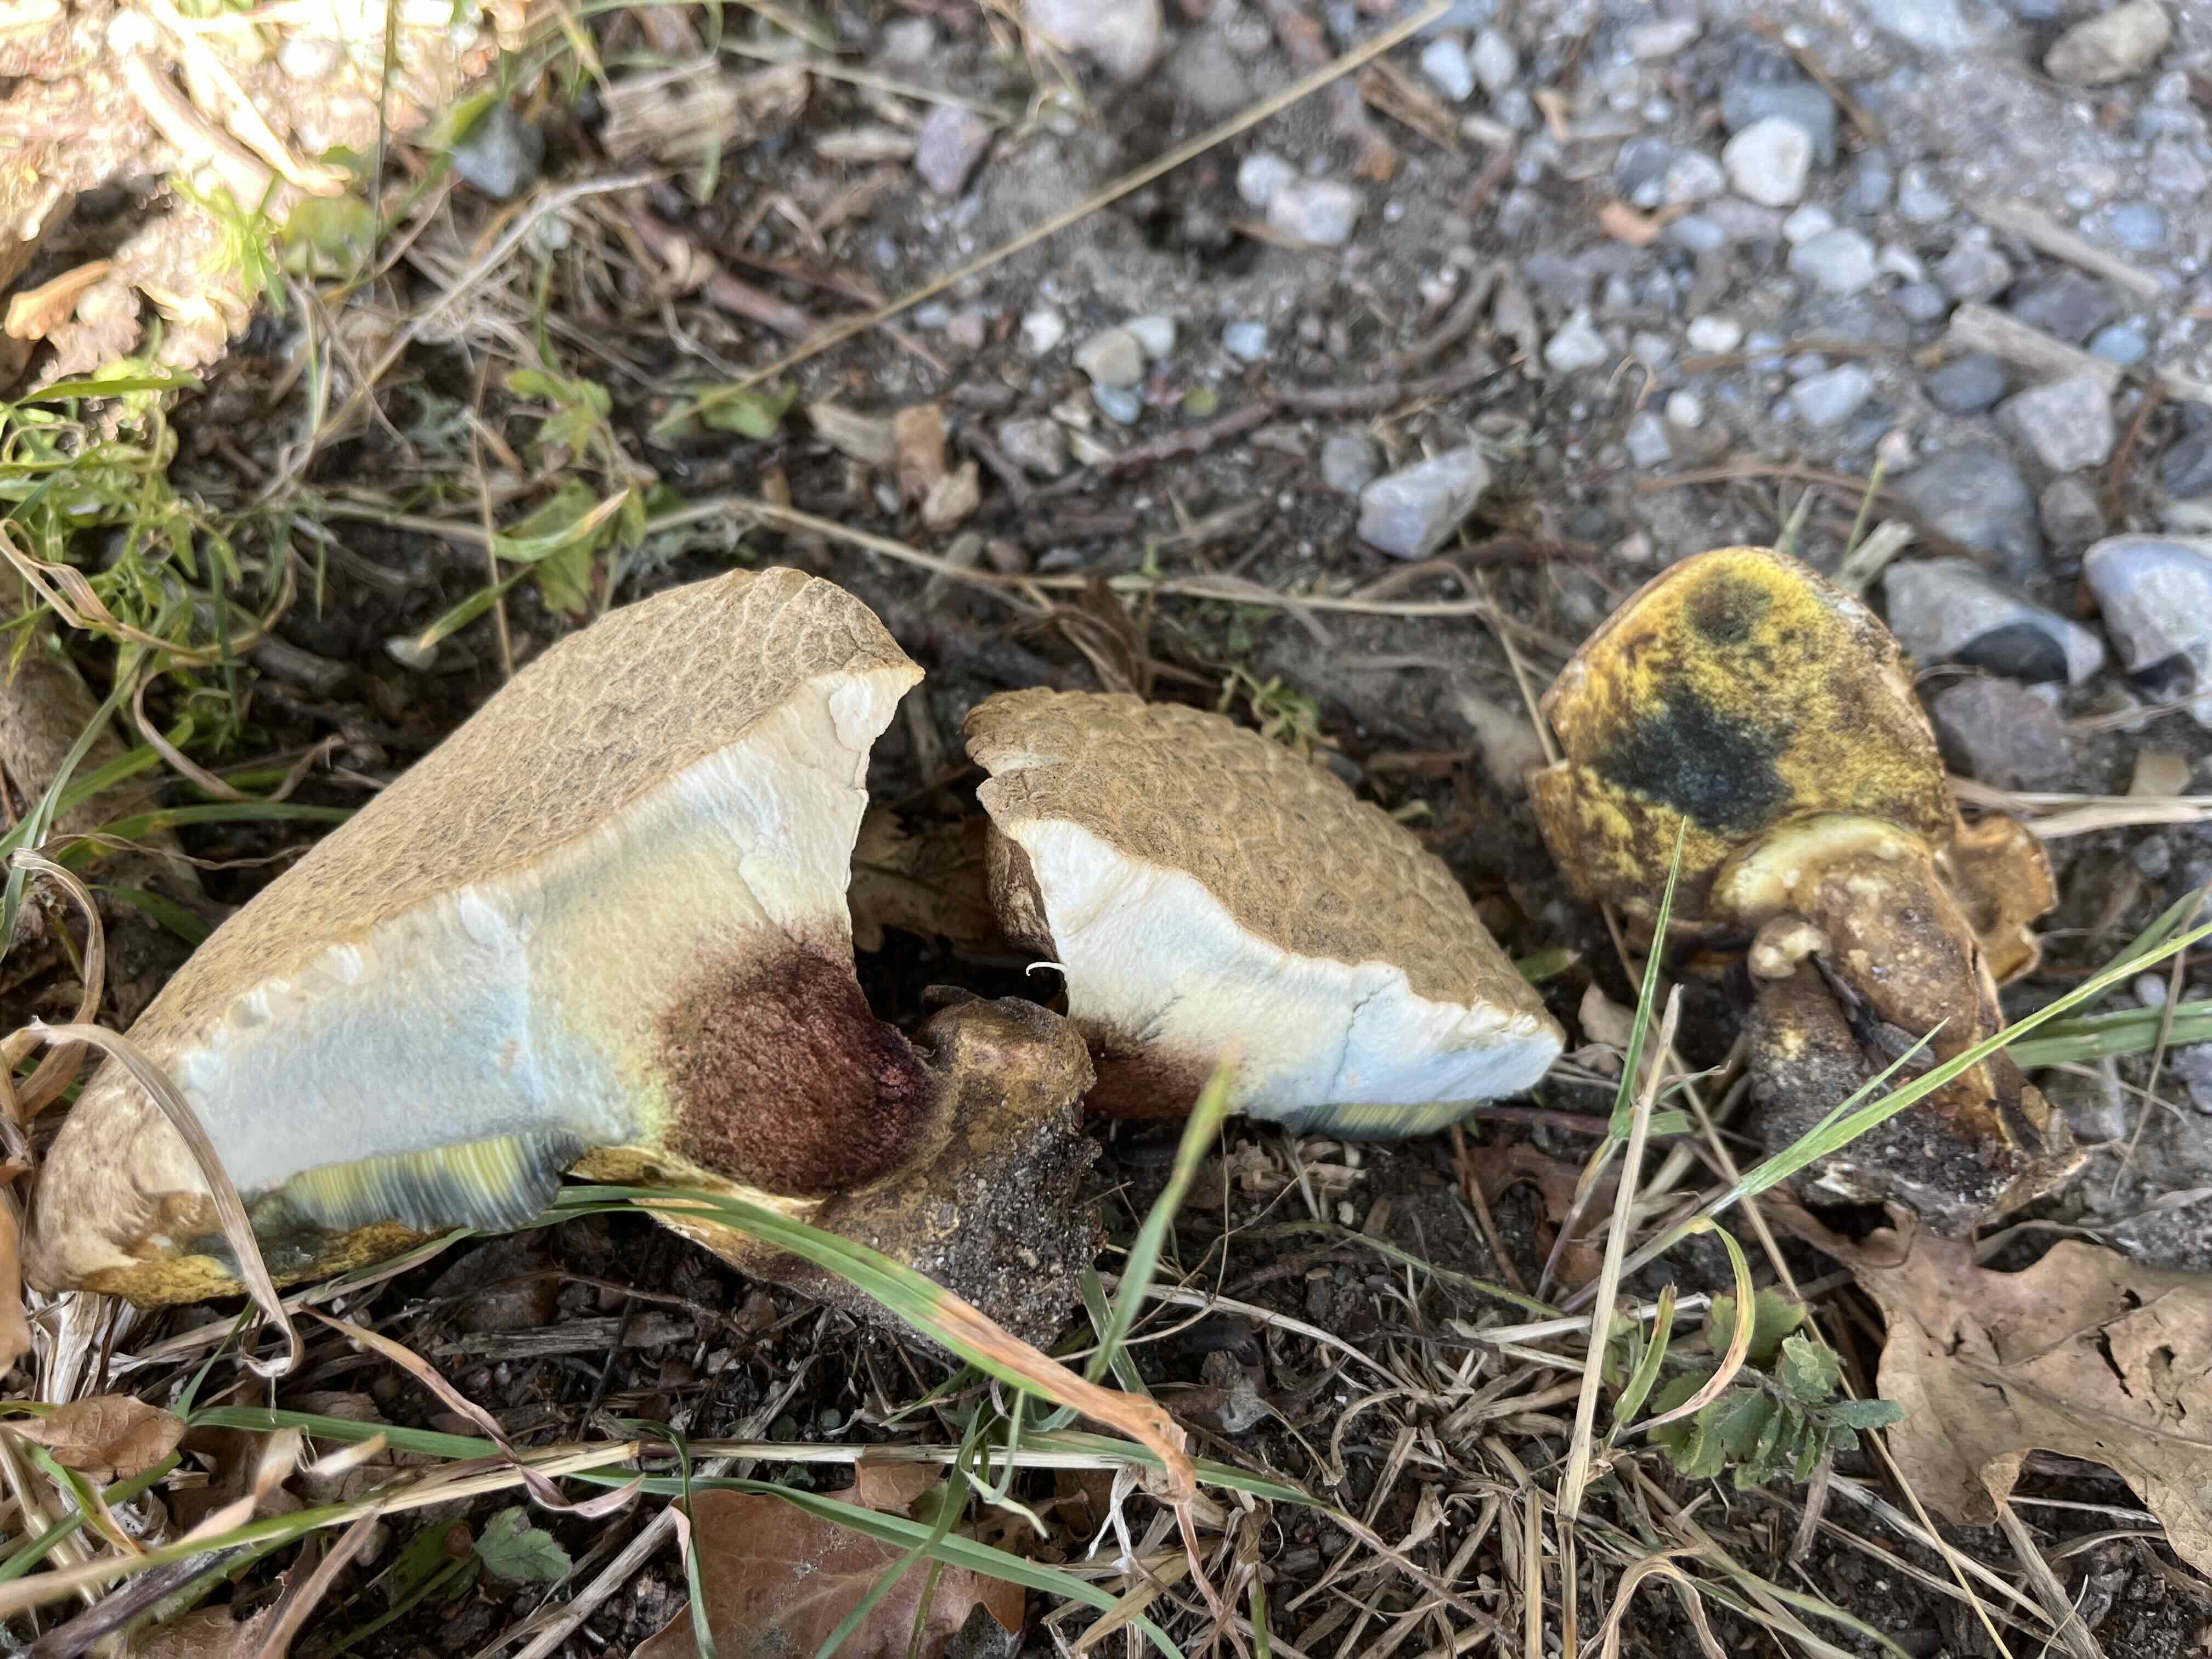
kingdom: Fungi
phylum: Basidiomycota
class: Agaricomycetes
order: Boletales
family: Boletaceae
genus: Caloboletus
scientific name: Caloboletus radicans
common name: rod-rørhat
